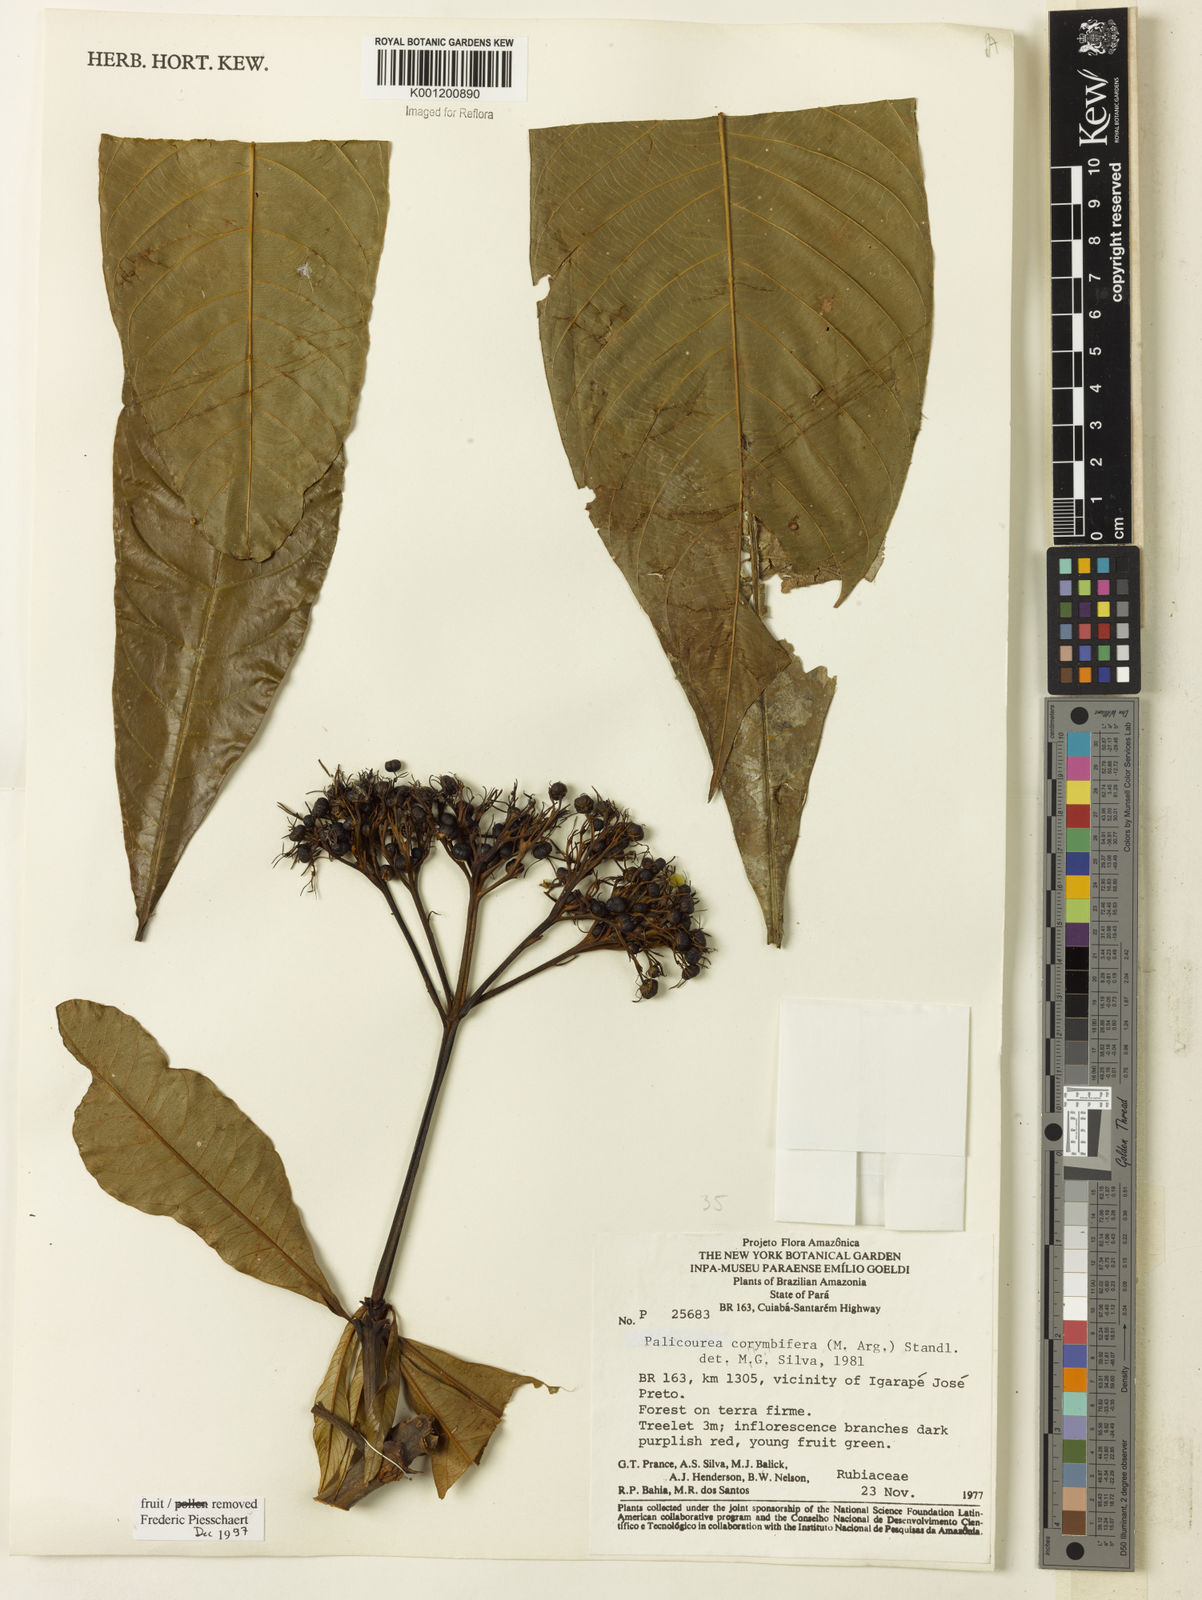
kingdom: Plantae
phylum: Tracheophyta
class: Magnoliopsida
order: Gentianales
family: Rubiaceae
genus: Palicourea
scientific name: Palicourea
